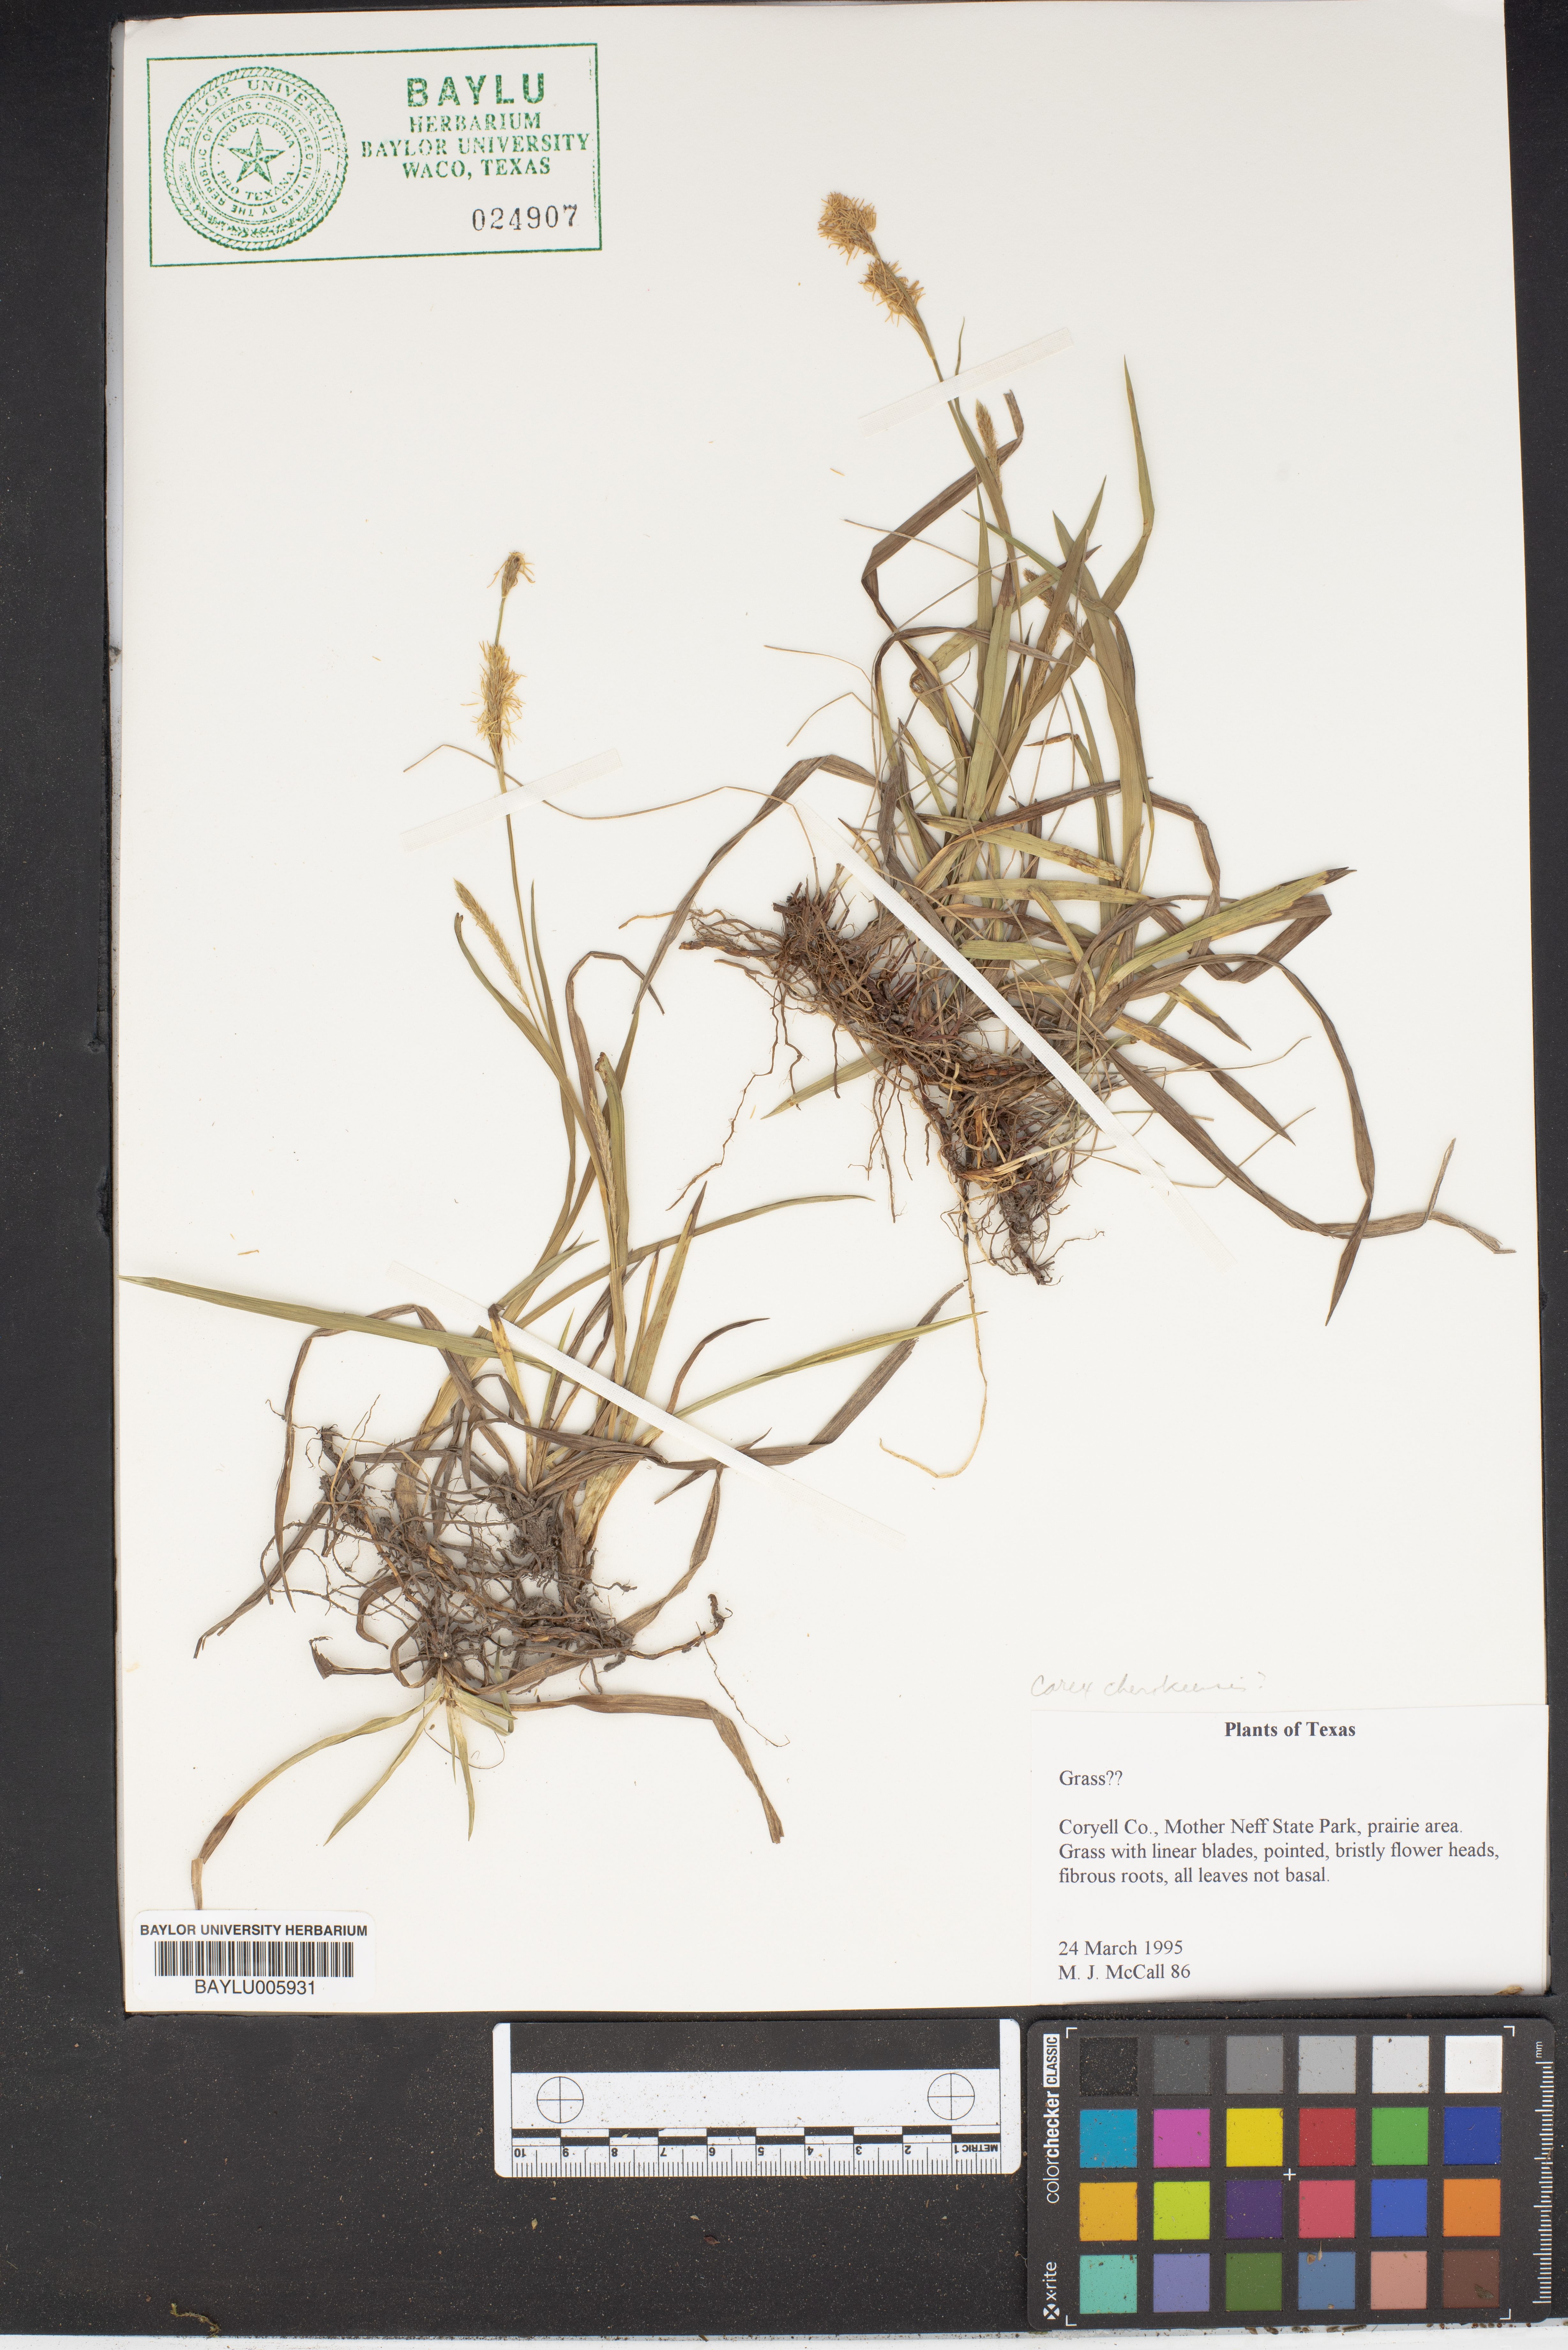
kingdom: Plantae
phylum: Tracheophyta
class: Liliopsida
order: Poales
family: Cyperaceae
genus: Carex
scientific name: Carex cherokeensis
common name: Cherokee sedge
